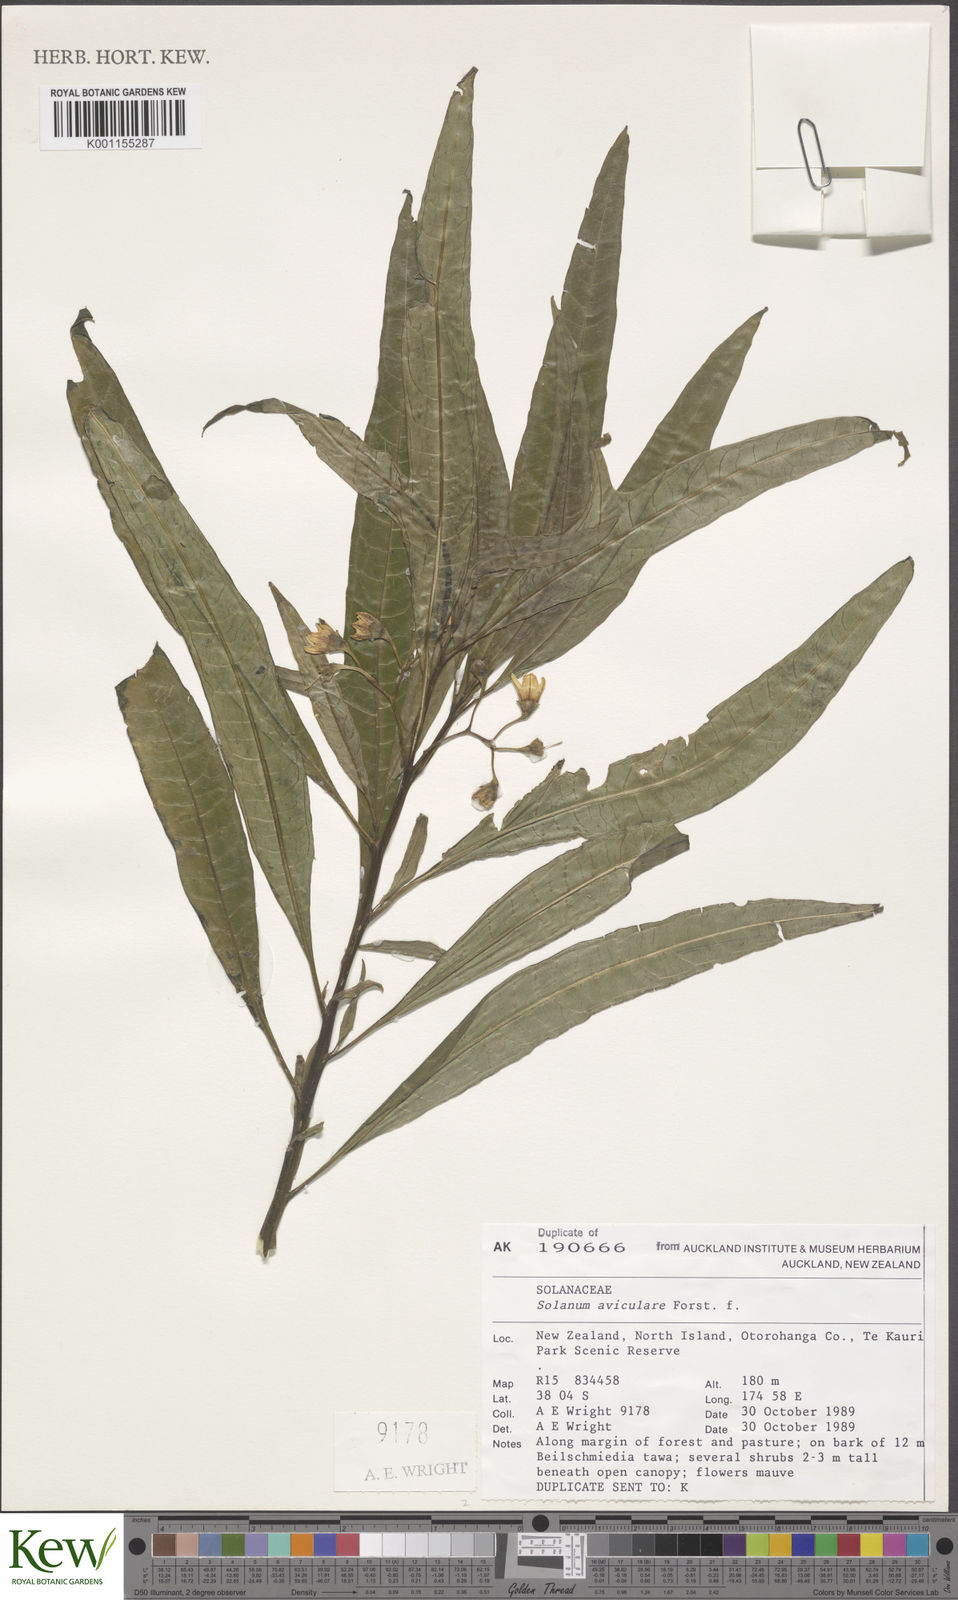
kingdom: Plantae
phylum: Tracheophyta
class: Magnoliopsida
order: Solanales
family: Solanaceae
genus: Solanum
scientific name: Solanum aviculare
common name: New zealand nightshade
